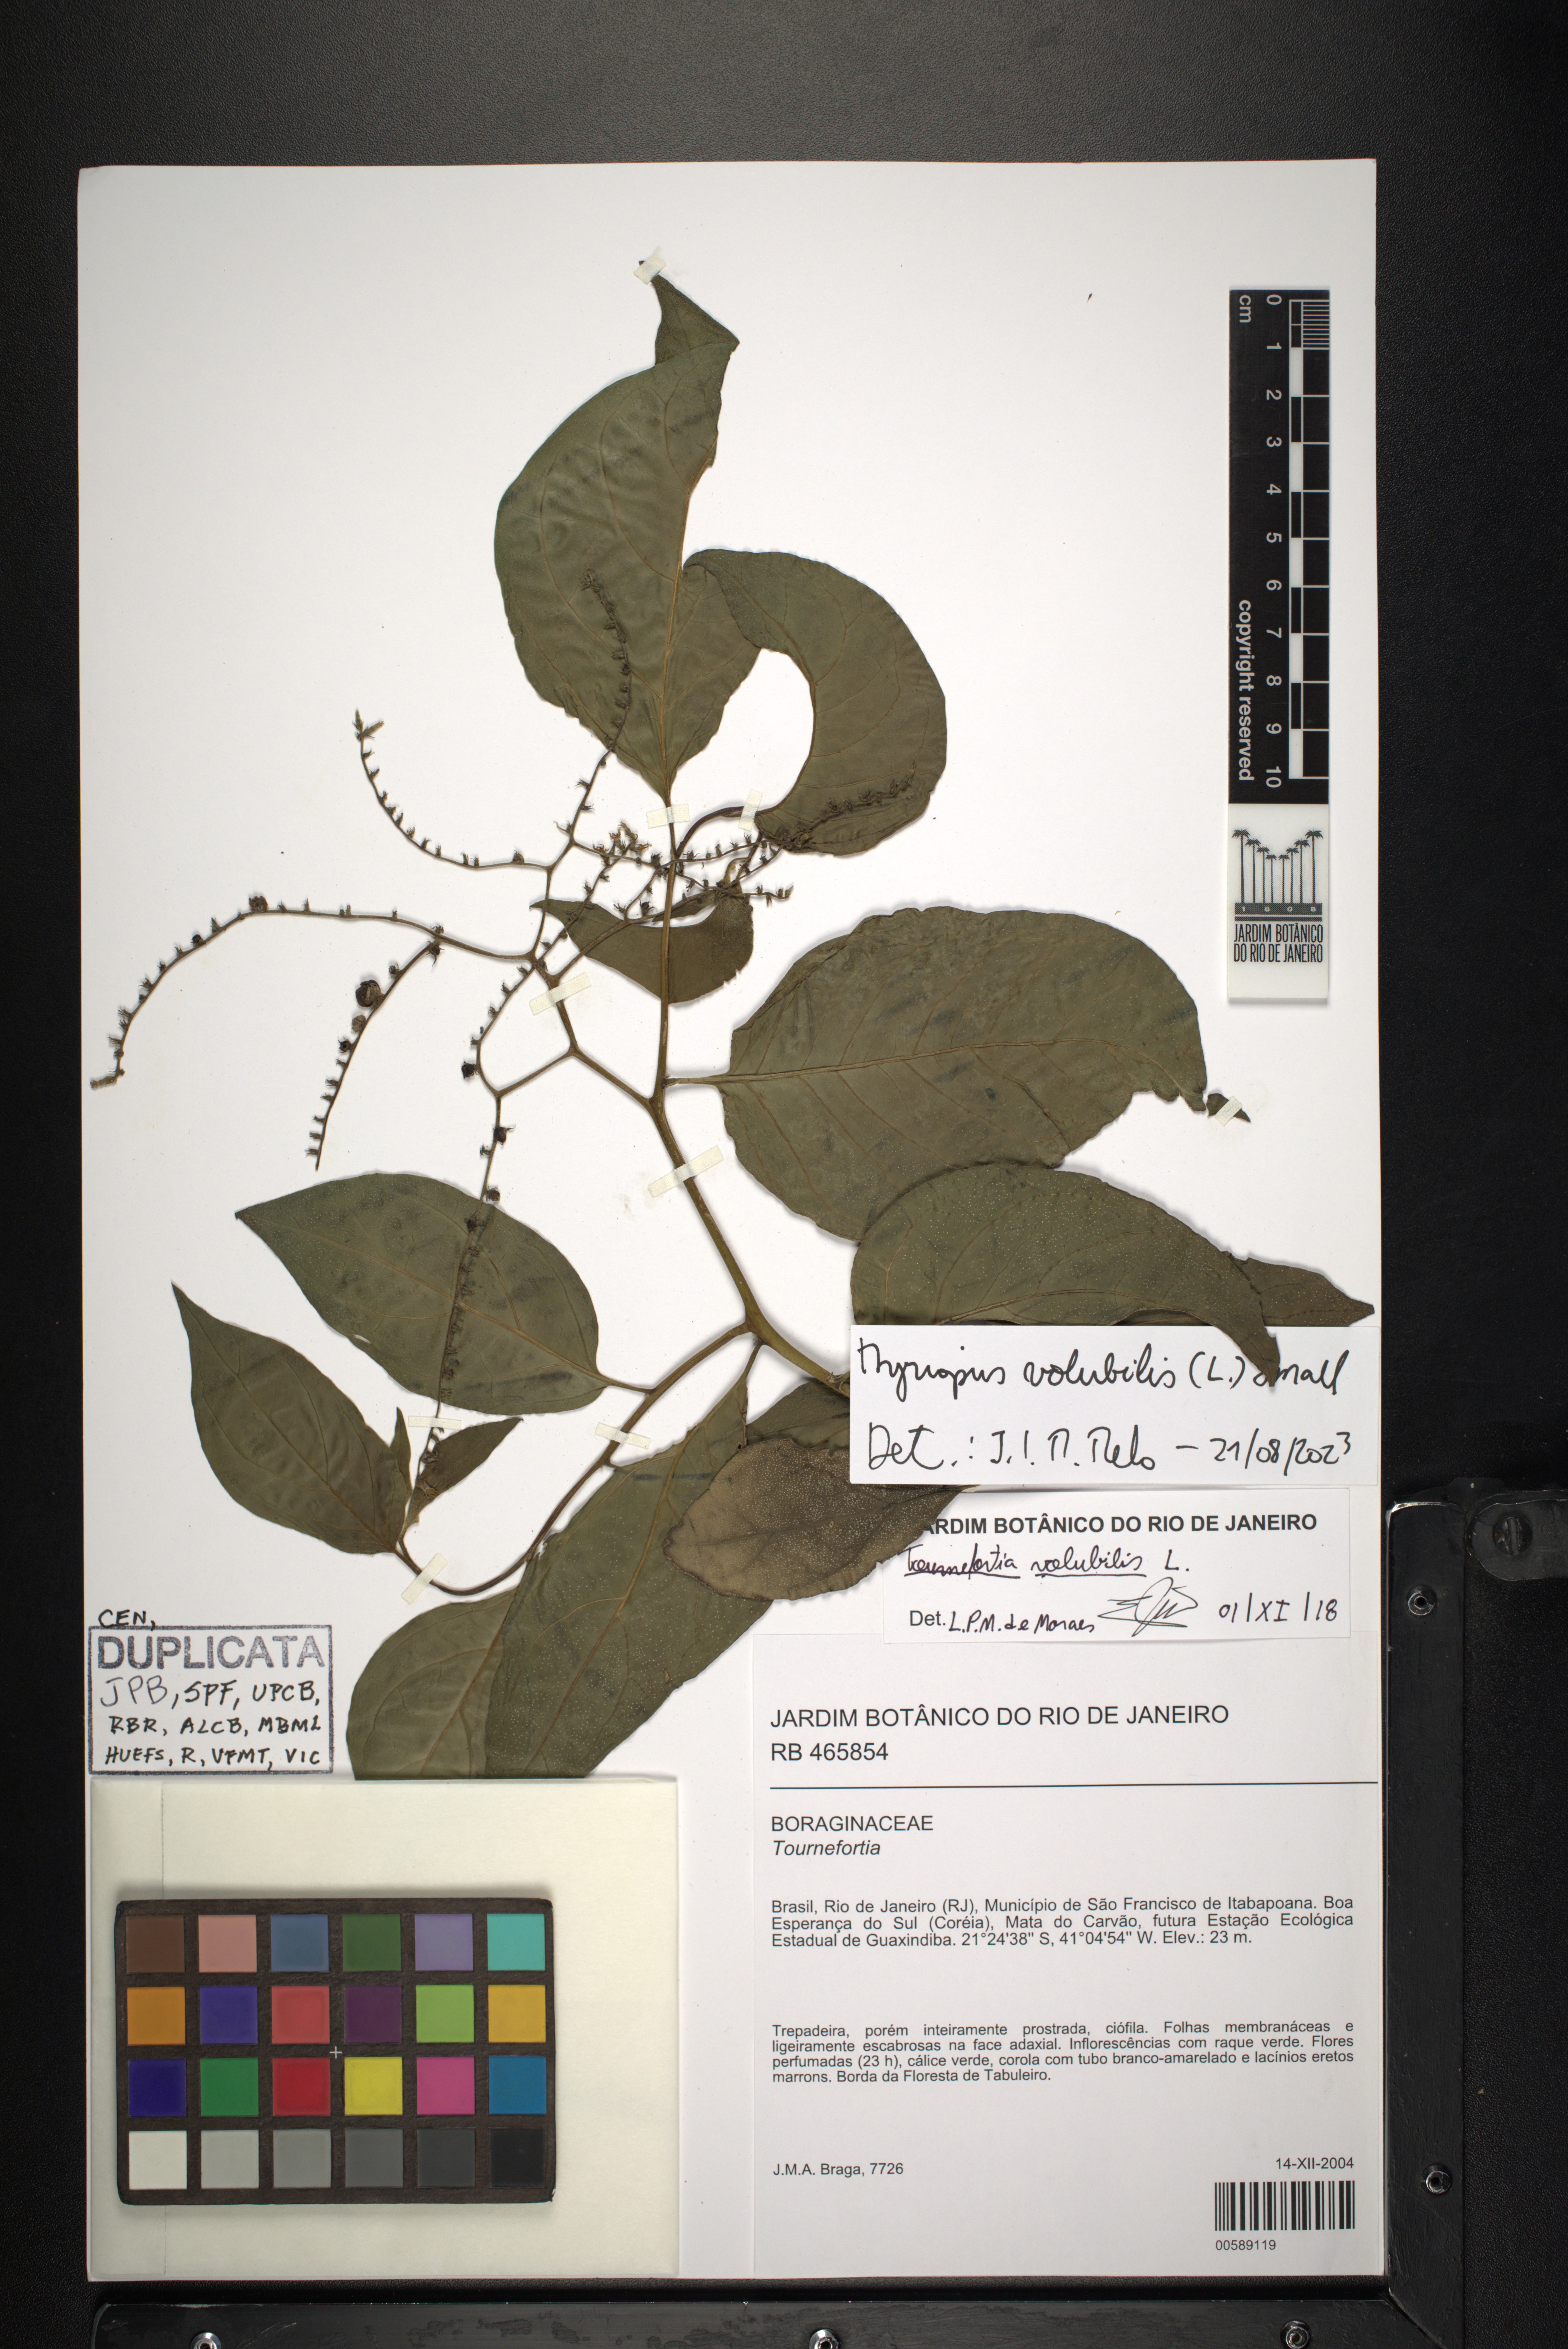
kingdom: Plantae
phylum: Tracheophyta
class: Magnoliopsida
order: Boraginales
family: Heliotropiaceae
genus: Myriopus
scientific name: Myriopus volubilis
